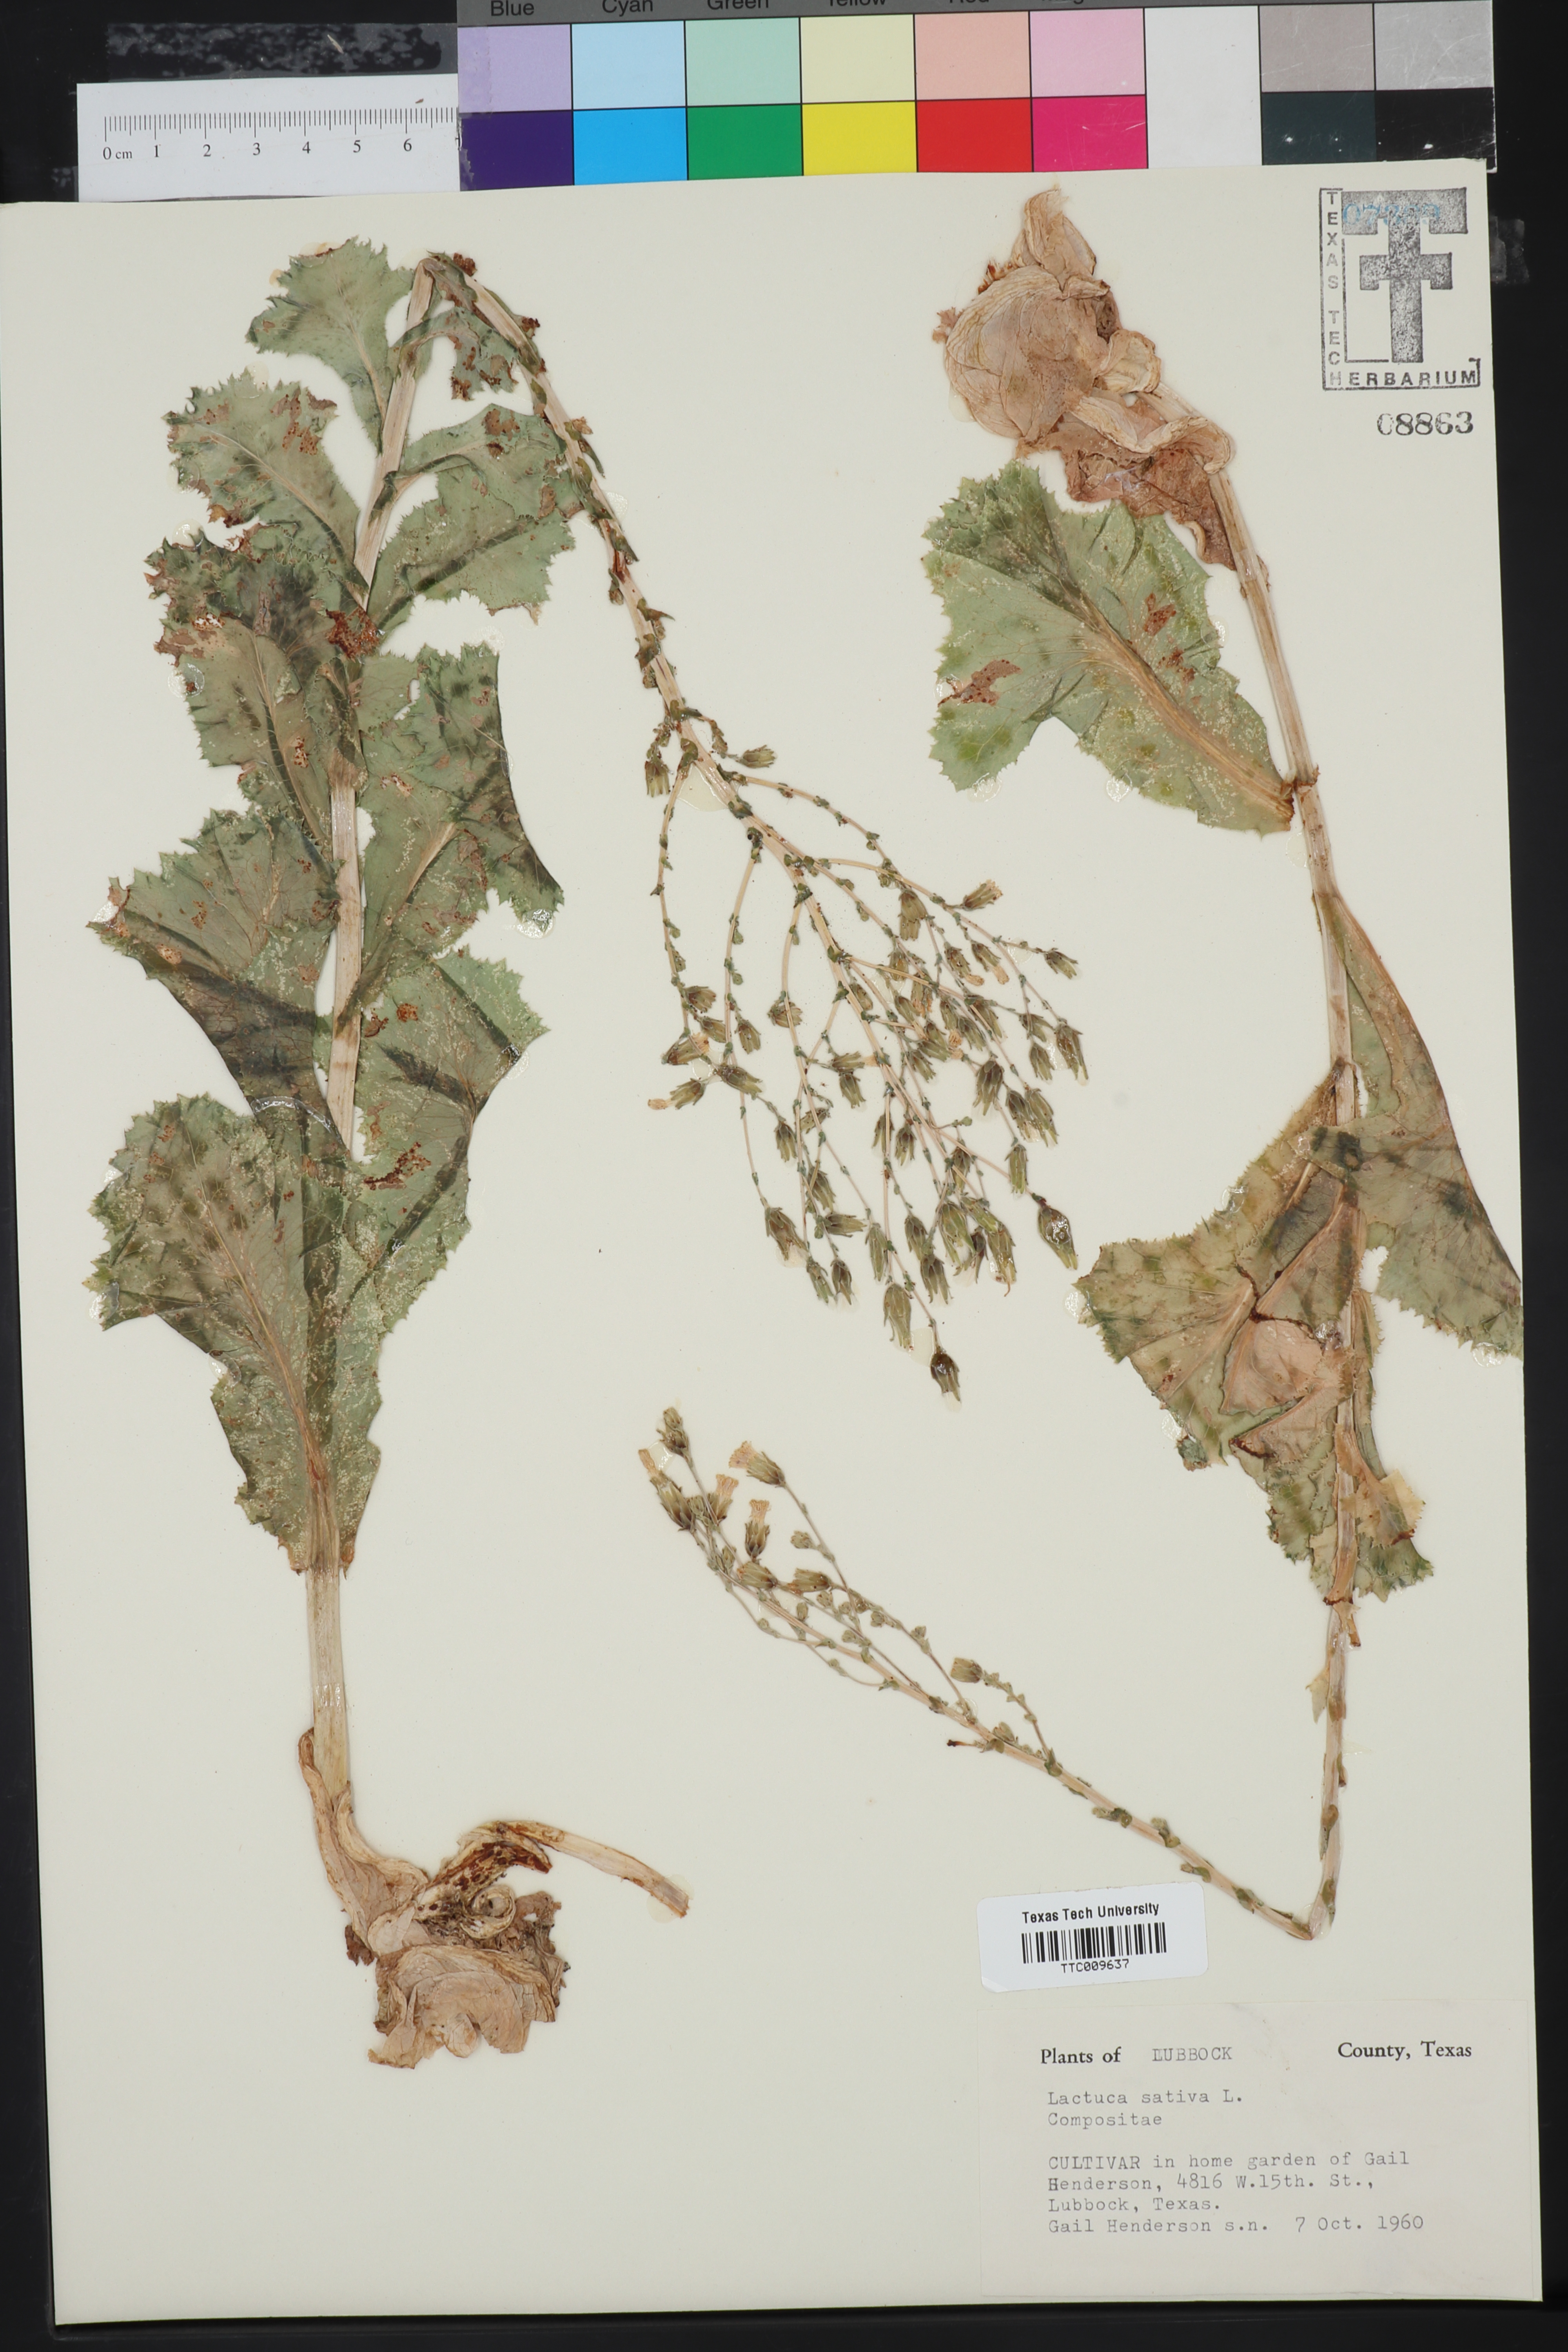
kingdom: Plantae
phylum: Tracheophyta
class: Magnoliopsida
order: Asterales
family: Asteraceae
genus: Lactuca
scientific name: Lactuca sativa
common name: Garden lettuce
